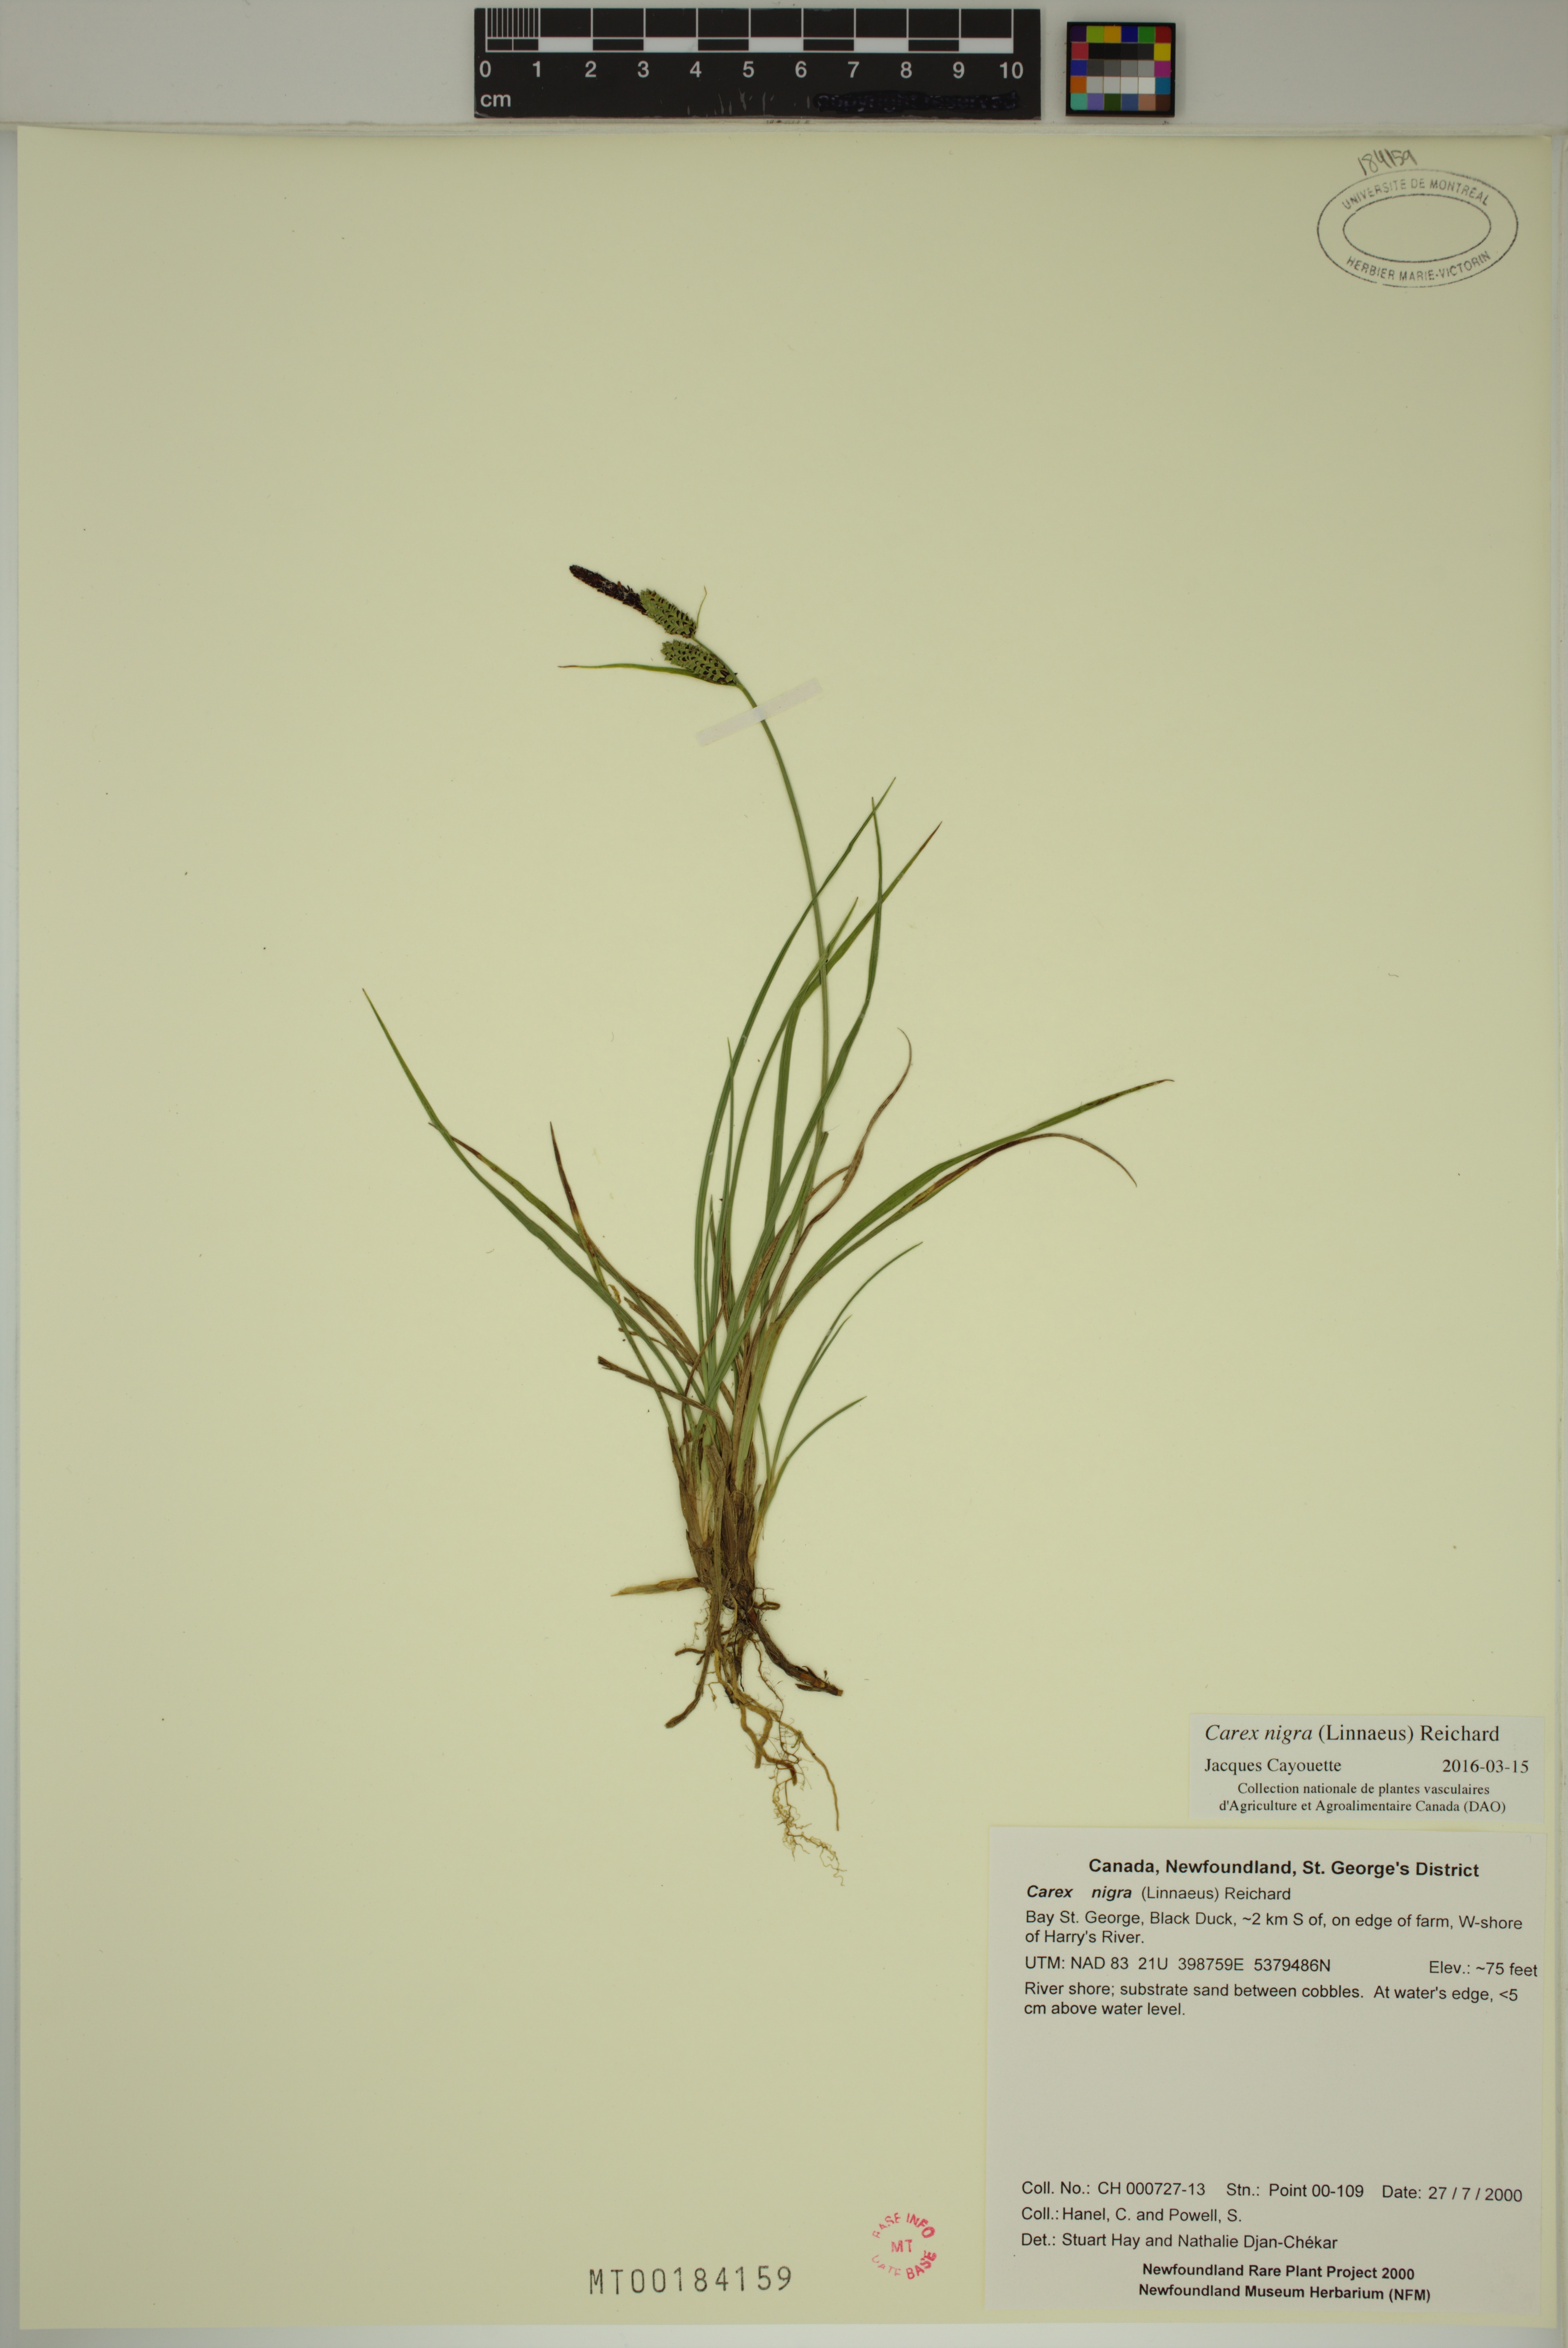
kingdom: Plantae
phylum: Tracheophyta
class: Liliopsida
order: Poales
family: Cyperaceae
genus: Carex
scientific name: Carex nigra
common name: Common sedge
